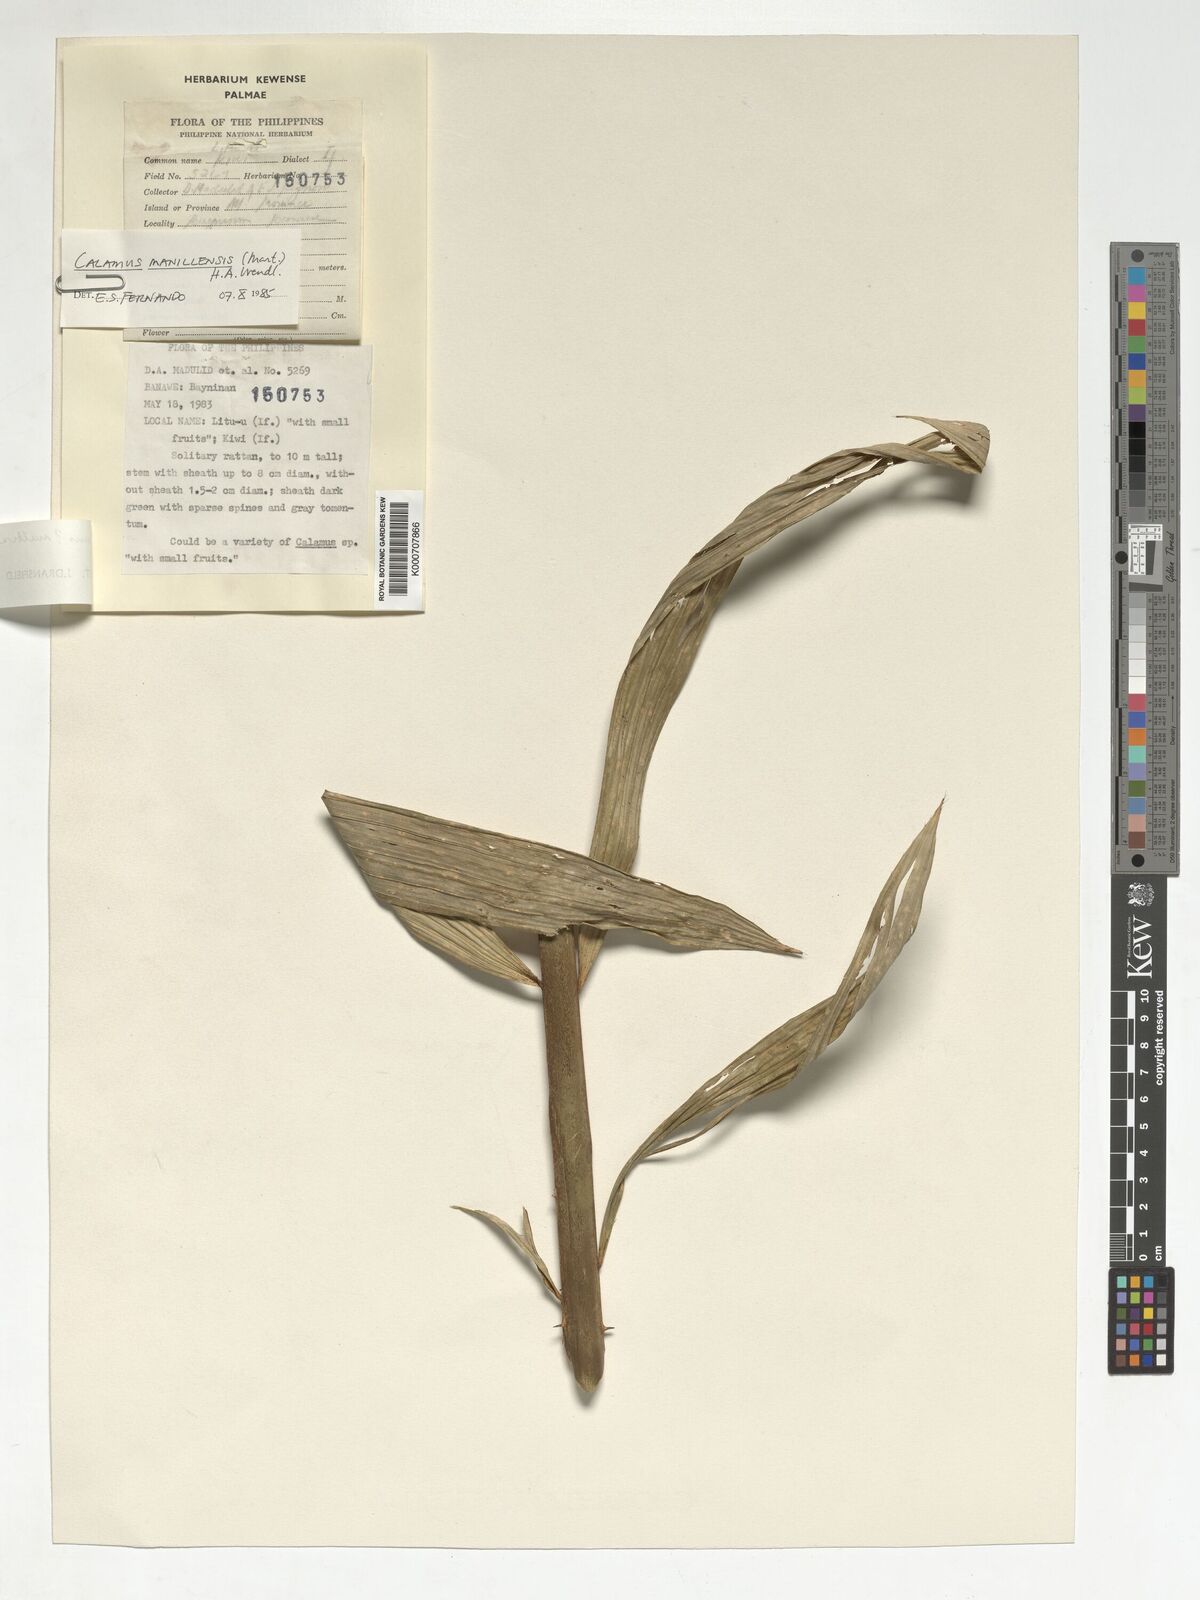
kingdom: Plantae
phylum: Tracheophyta
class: Liliopsida
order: Arecales
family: Arecaceae
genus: Calamus
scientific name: Calamus manillensis
